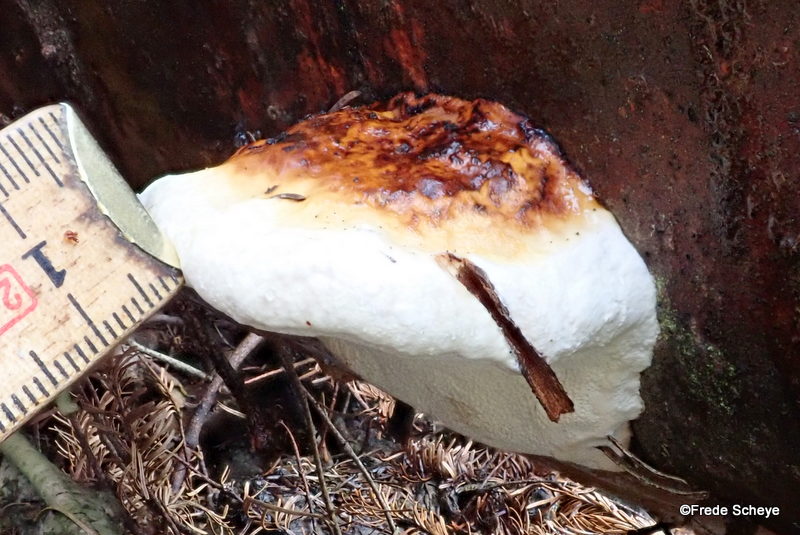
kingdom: Fungi
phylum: Basidiomycota
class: Agaricomycetes
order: Polyporales
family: Fomitopsidaceae
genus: Fomitopsis
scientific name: Fomitopsis pinicola
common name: randbæltet hovporesvamp
